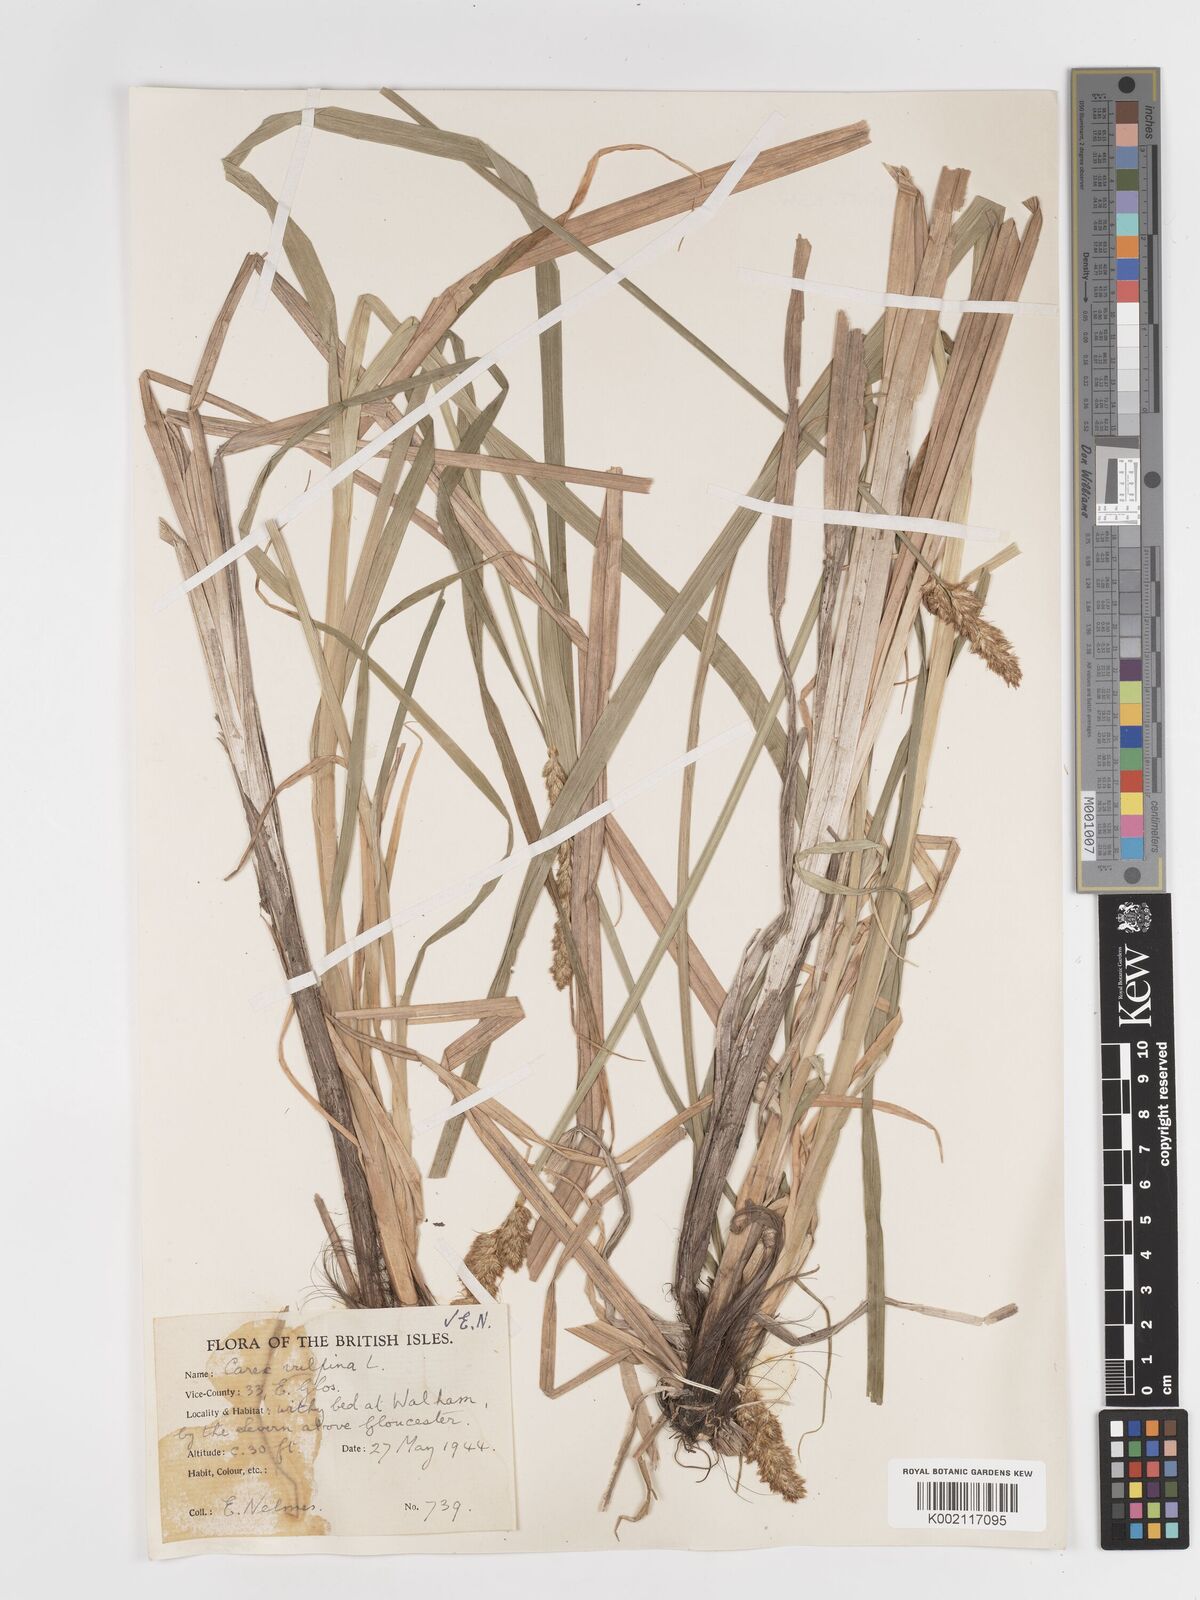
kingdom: Plantae
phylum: Tracheophyta
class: Liliopsida
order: Poales
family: Cyperaceae
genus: Carex
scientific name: Carex vulpina
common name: True fox-sedge
